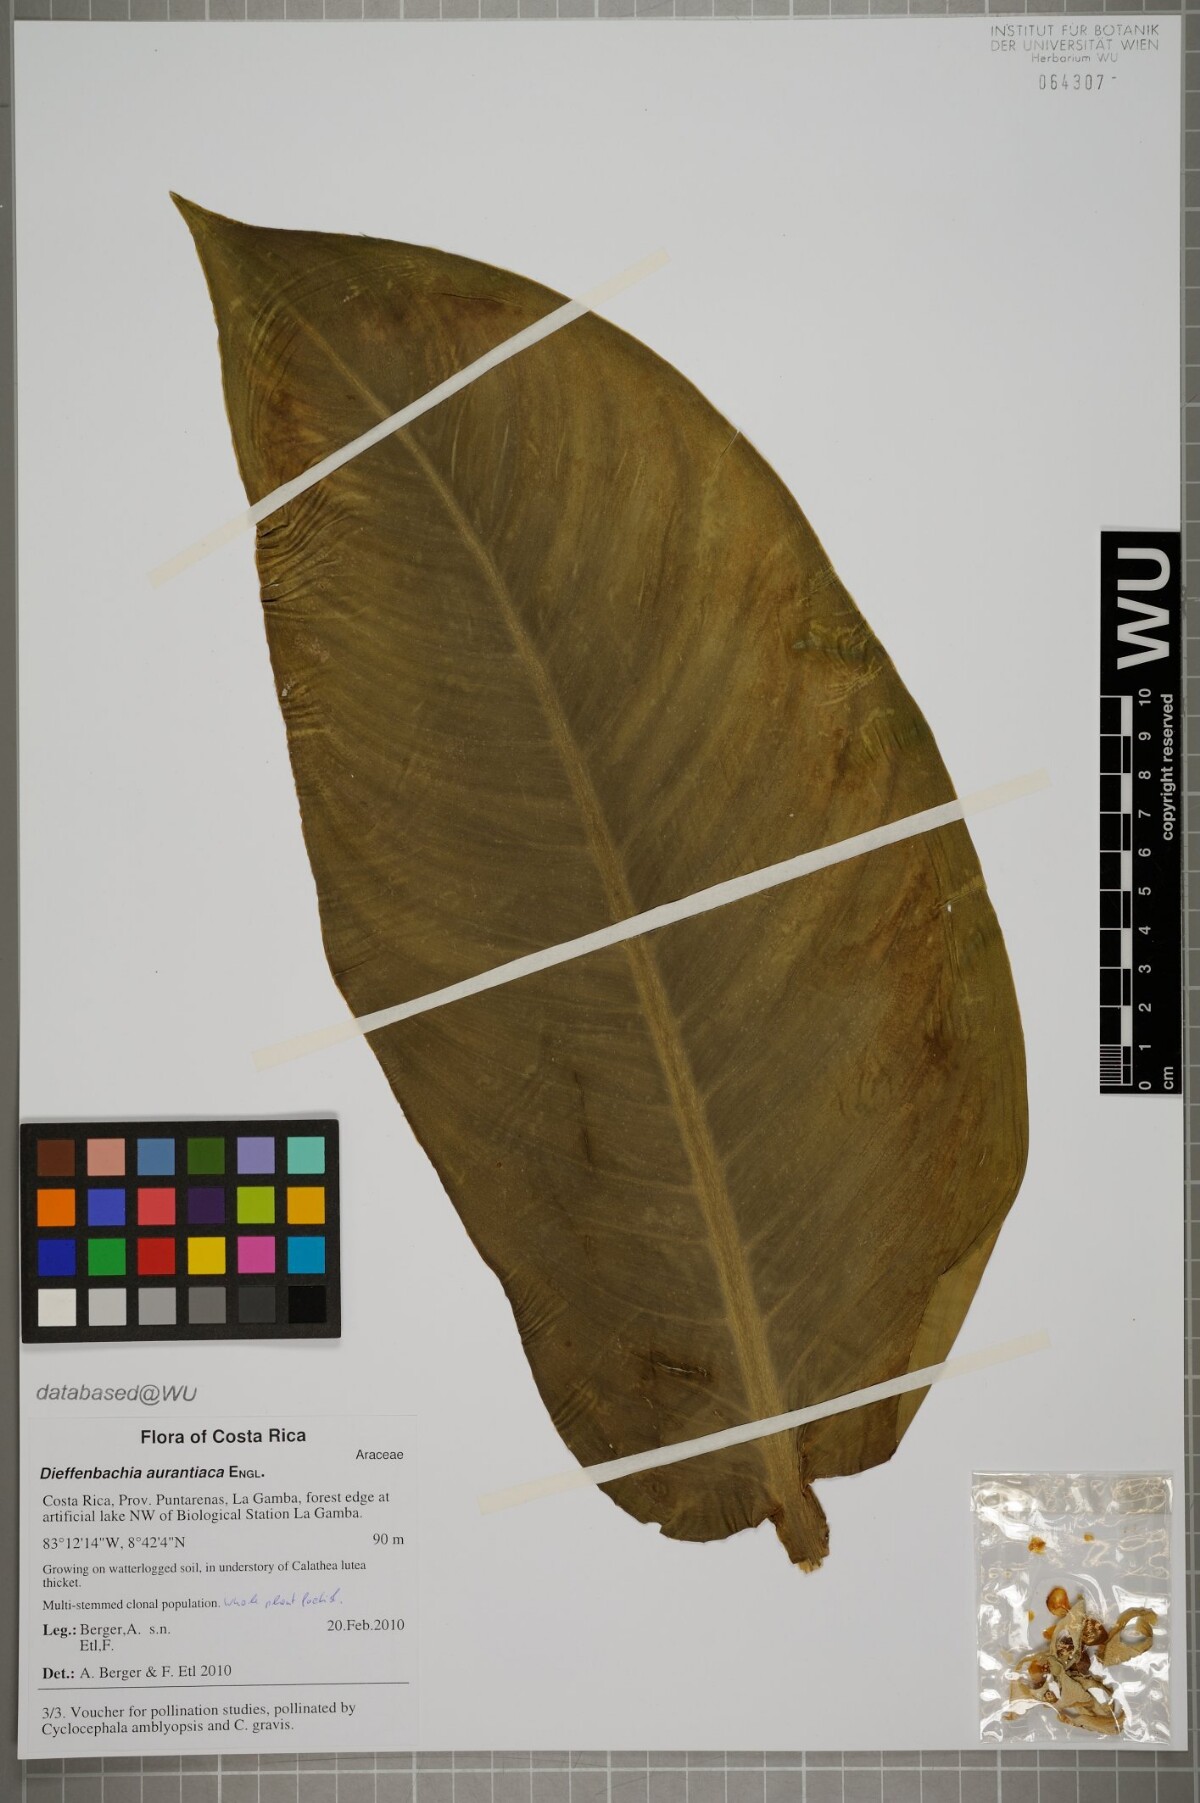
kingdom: Plantae
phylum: Tracheophyta
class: Liliopsida
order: Alismatales
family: Araceae
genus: Dieffenbachia
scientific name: Dieffenbachia aurantiaca
